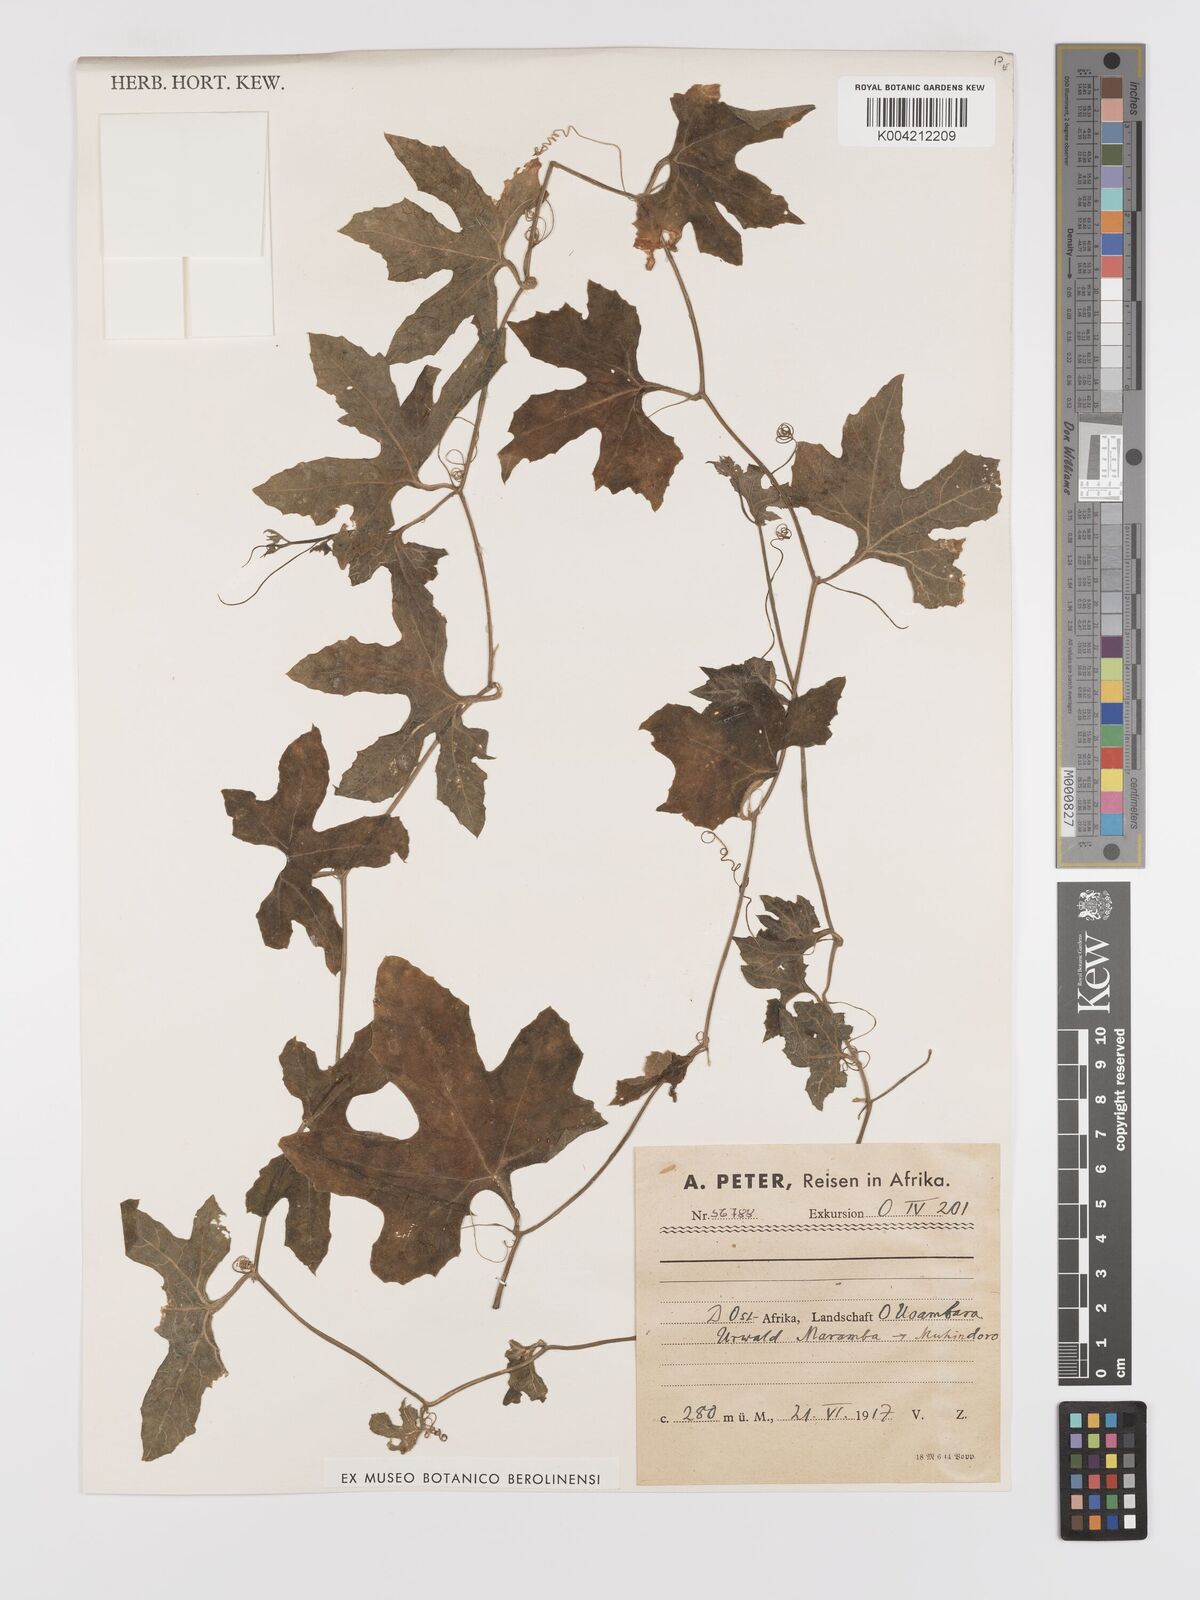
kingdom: Plantae
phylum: Tracheophyta
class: Magnoliopsida
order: Cucurbitales
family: Cucurbitaceae
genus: Kedrostis
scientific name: Kedrostis abdallae
